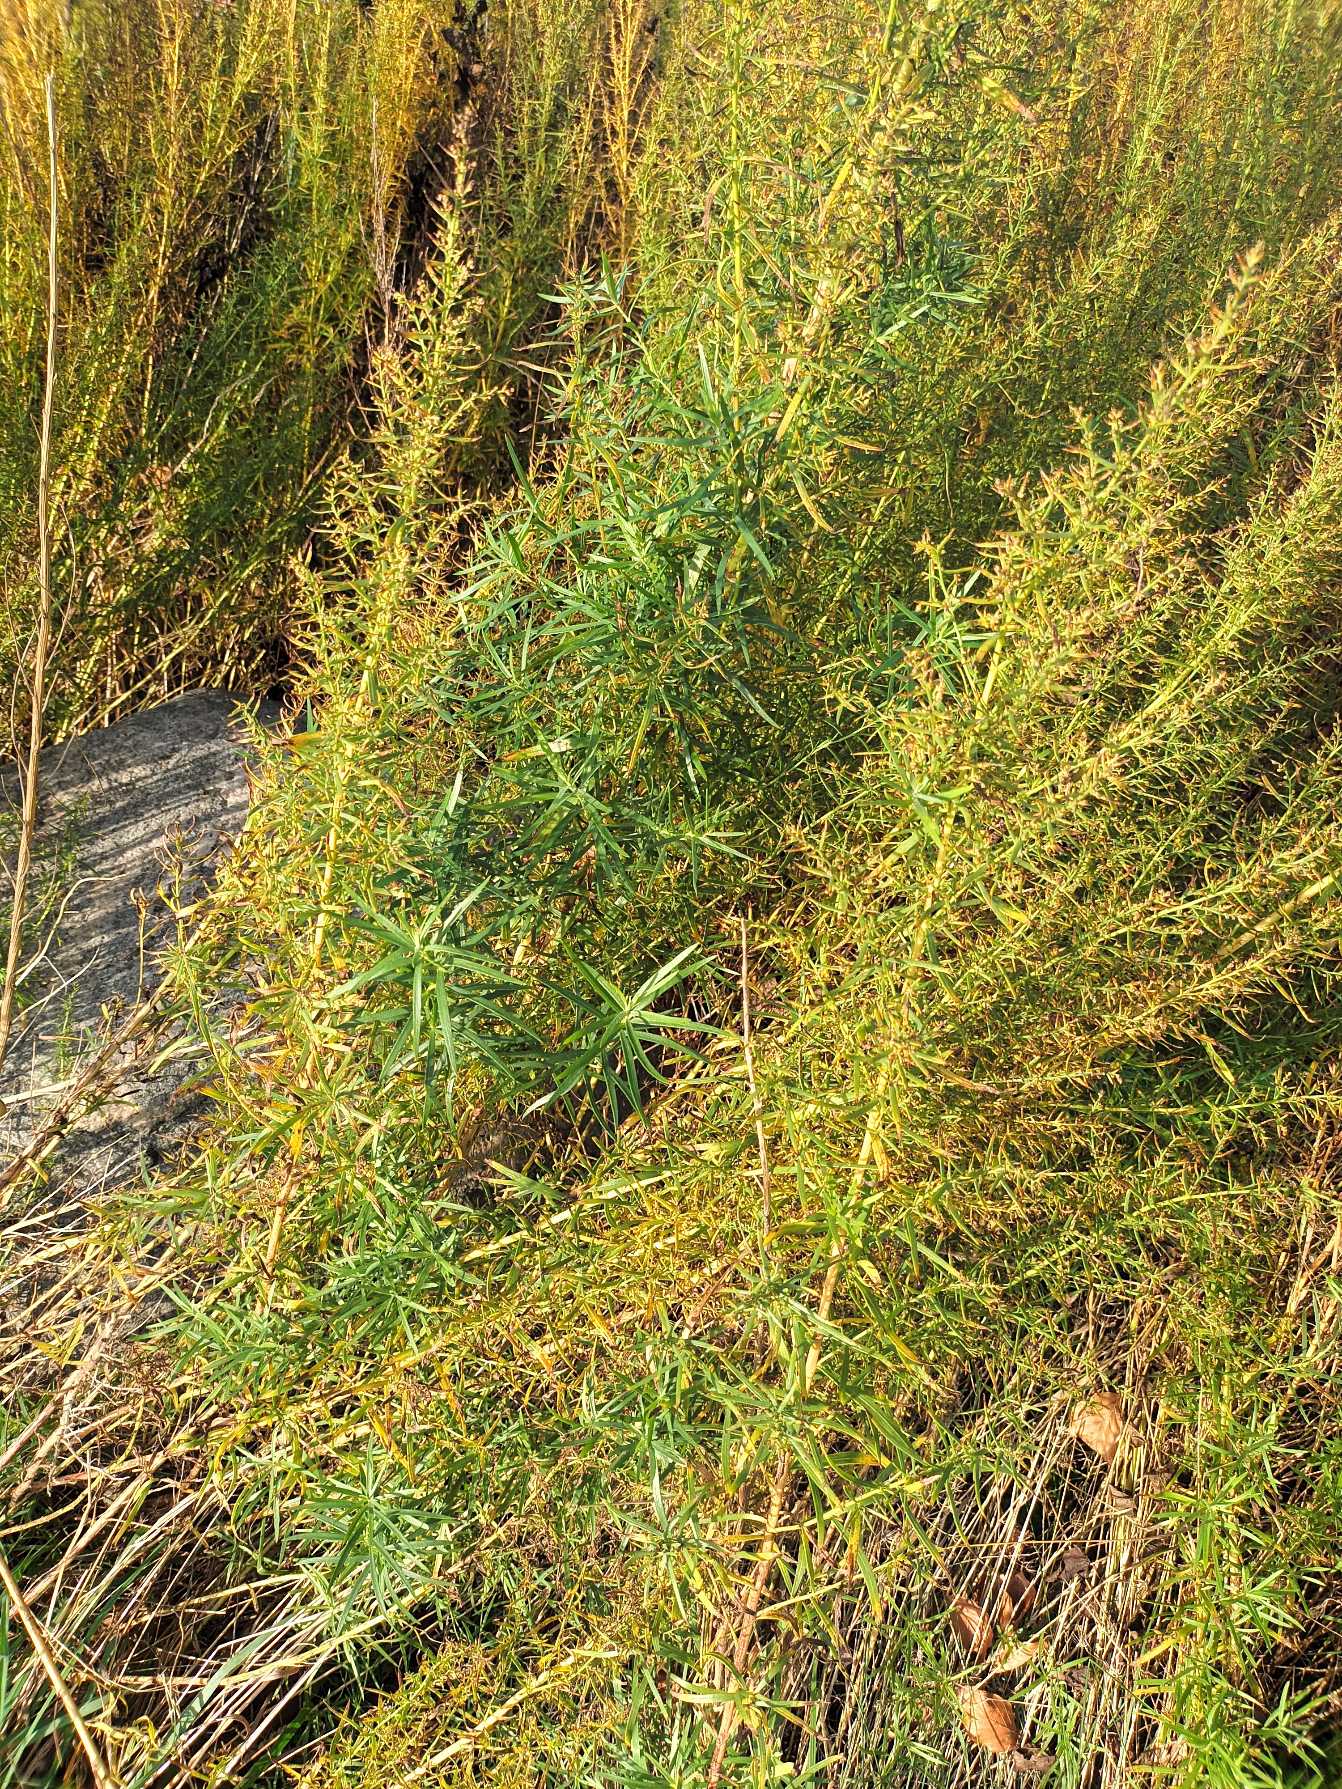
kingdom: Plantae
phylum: Tracheophyta
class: Magnoliopsida
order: Asterales
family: Asteraceae
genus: Artemisia
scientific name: Artemisia dracunculus
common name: Esdragon
